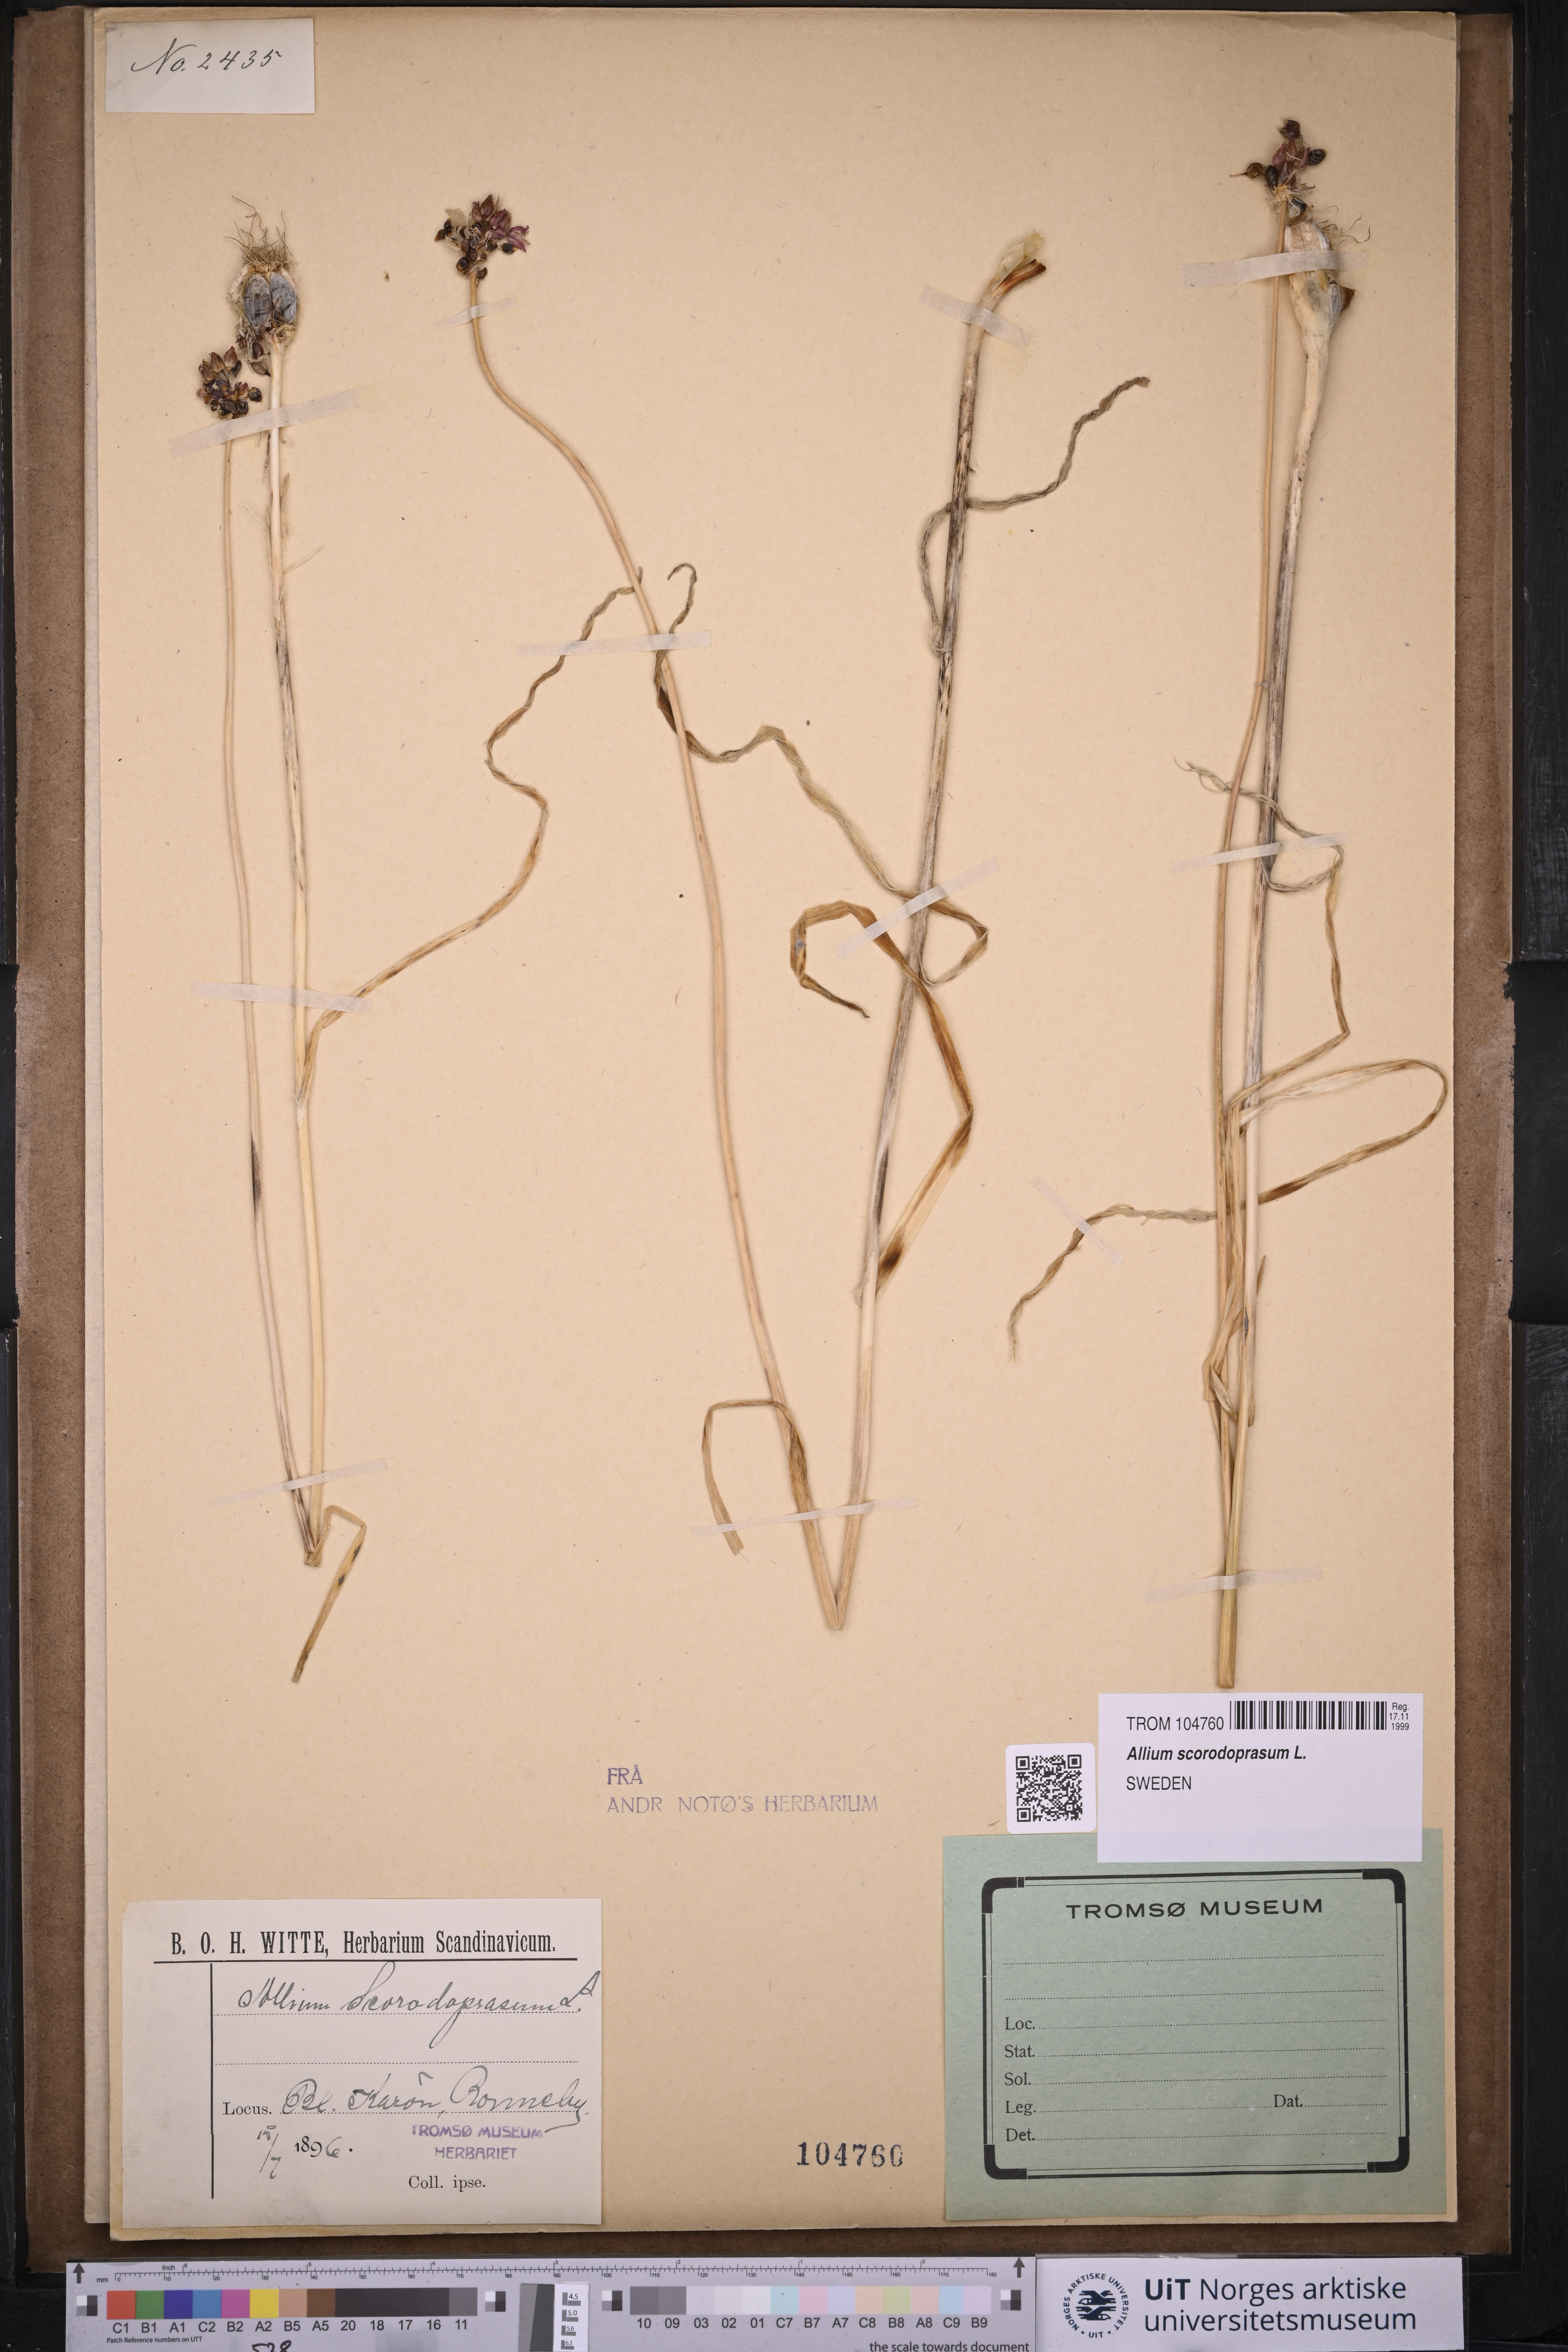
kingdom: Plantae
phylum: Tracheophyta
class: Liliopsida
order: Asparagales
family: Amaryllidaceae
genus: Allium
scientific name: Allium scorodoprasum
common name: Sand leek
